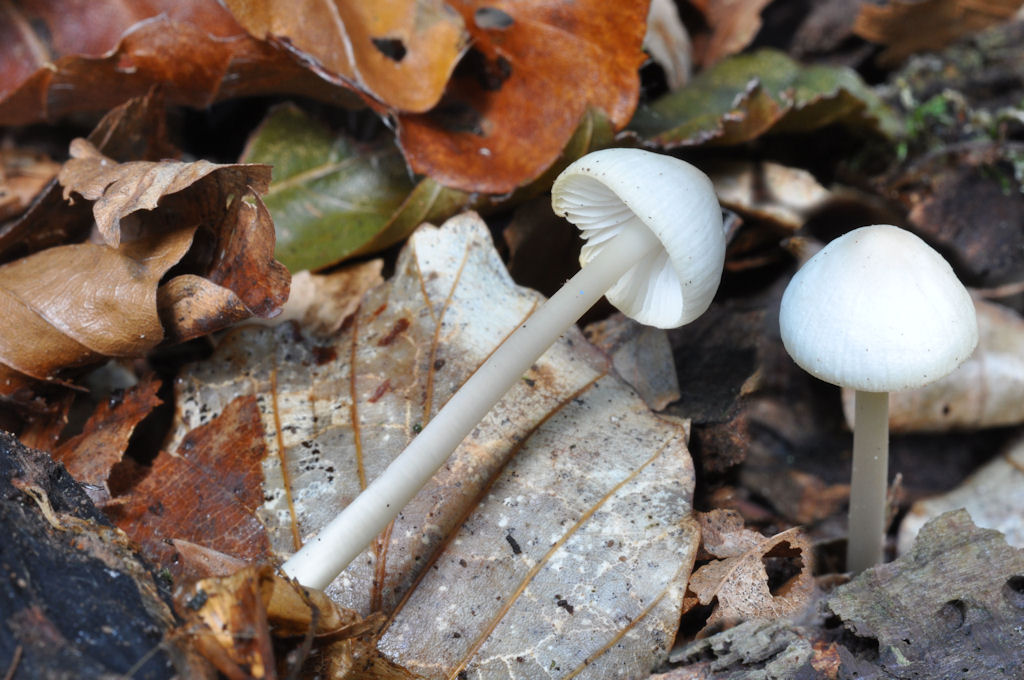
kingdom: Fungi
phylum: Basidiomycota
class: Agaricomycetes
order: Agaricales
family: Mycenaceae
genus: Mycena
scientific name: Mycena galericulata
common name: Bonnet mycena
